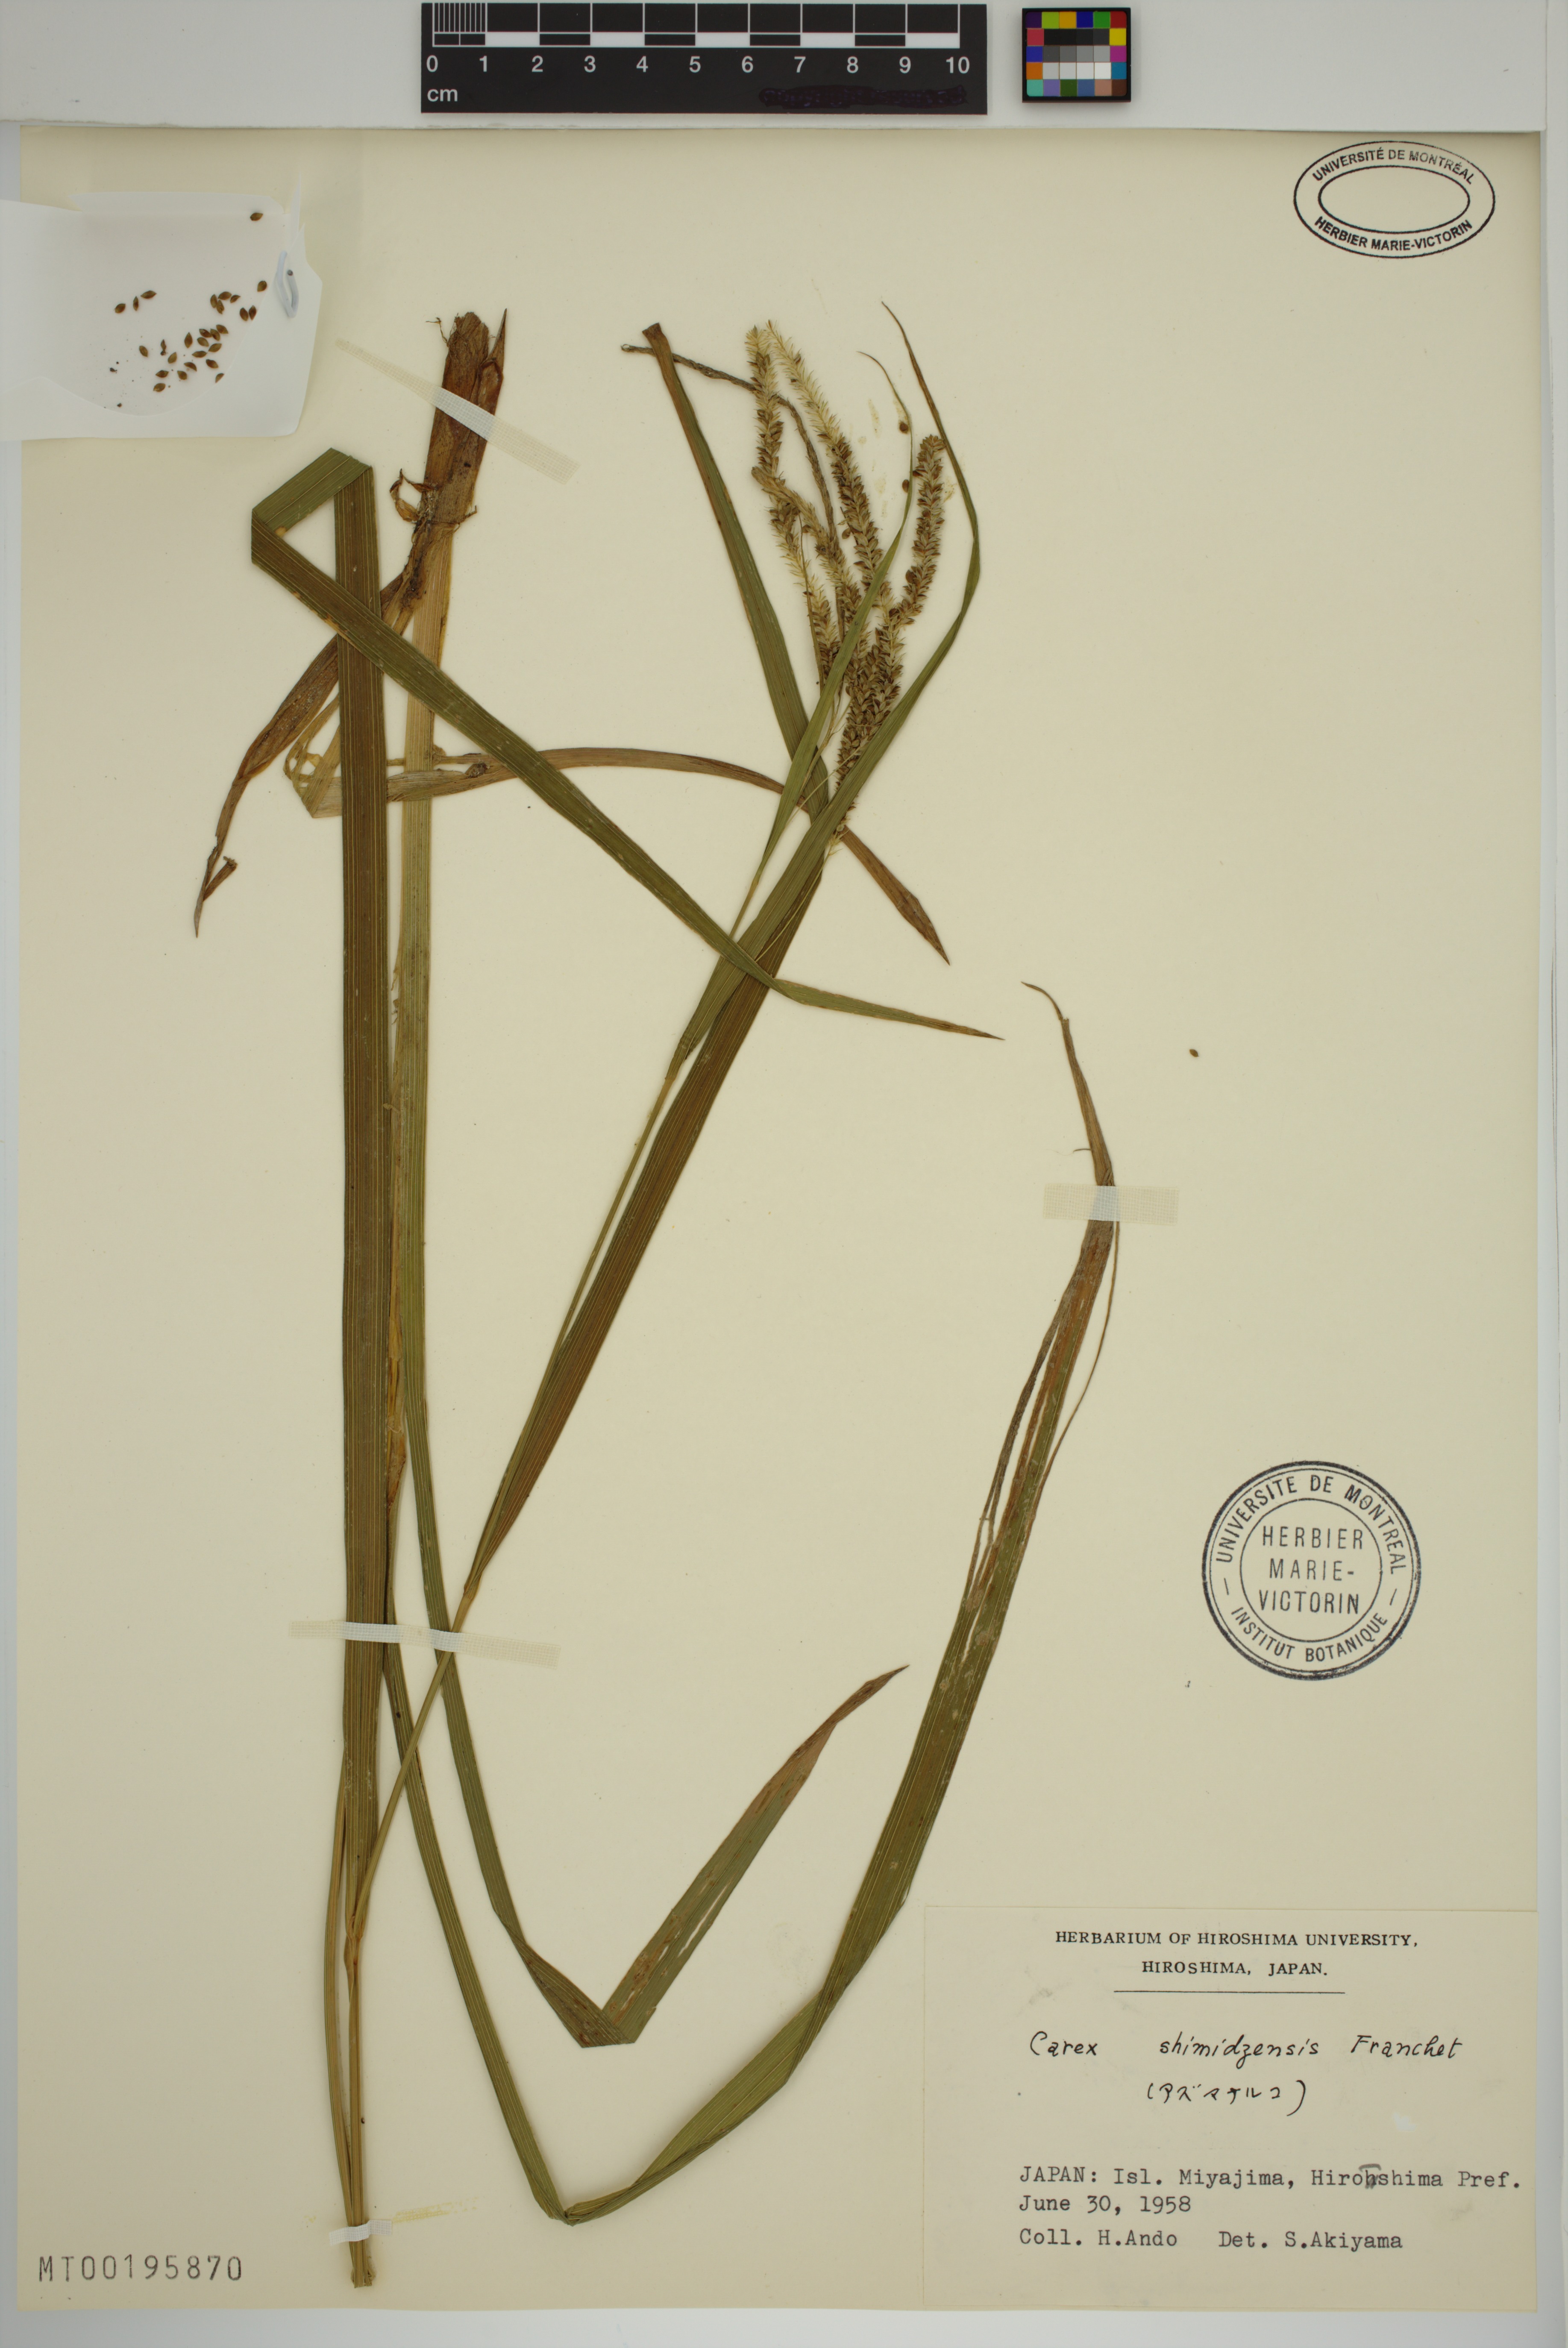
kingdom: Plantae
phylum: Tracheophyta
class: Liliopsida
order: Poales
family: Cyperaceae
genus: Carex
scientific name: Carex shimidzensis
